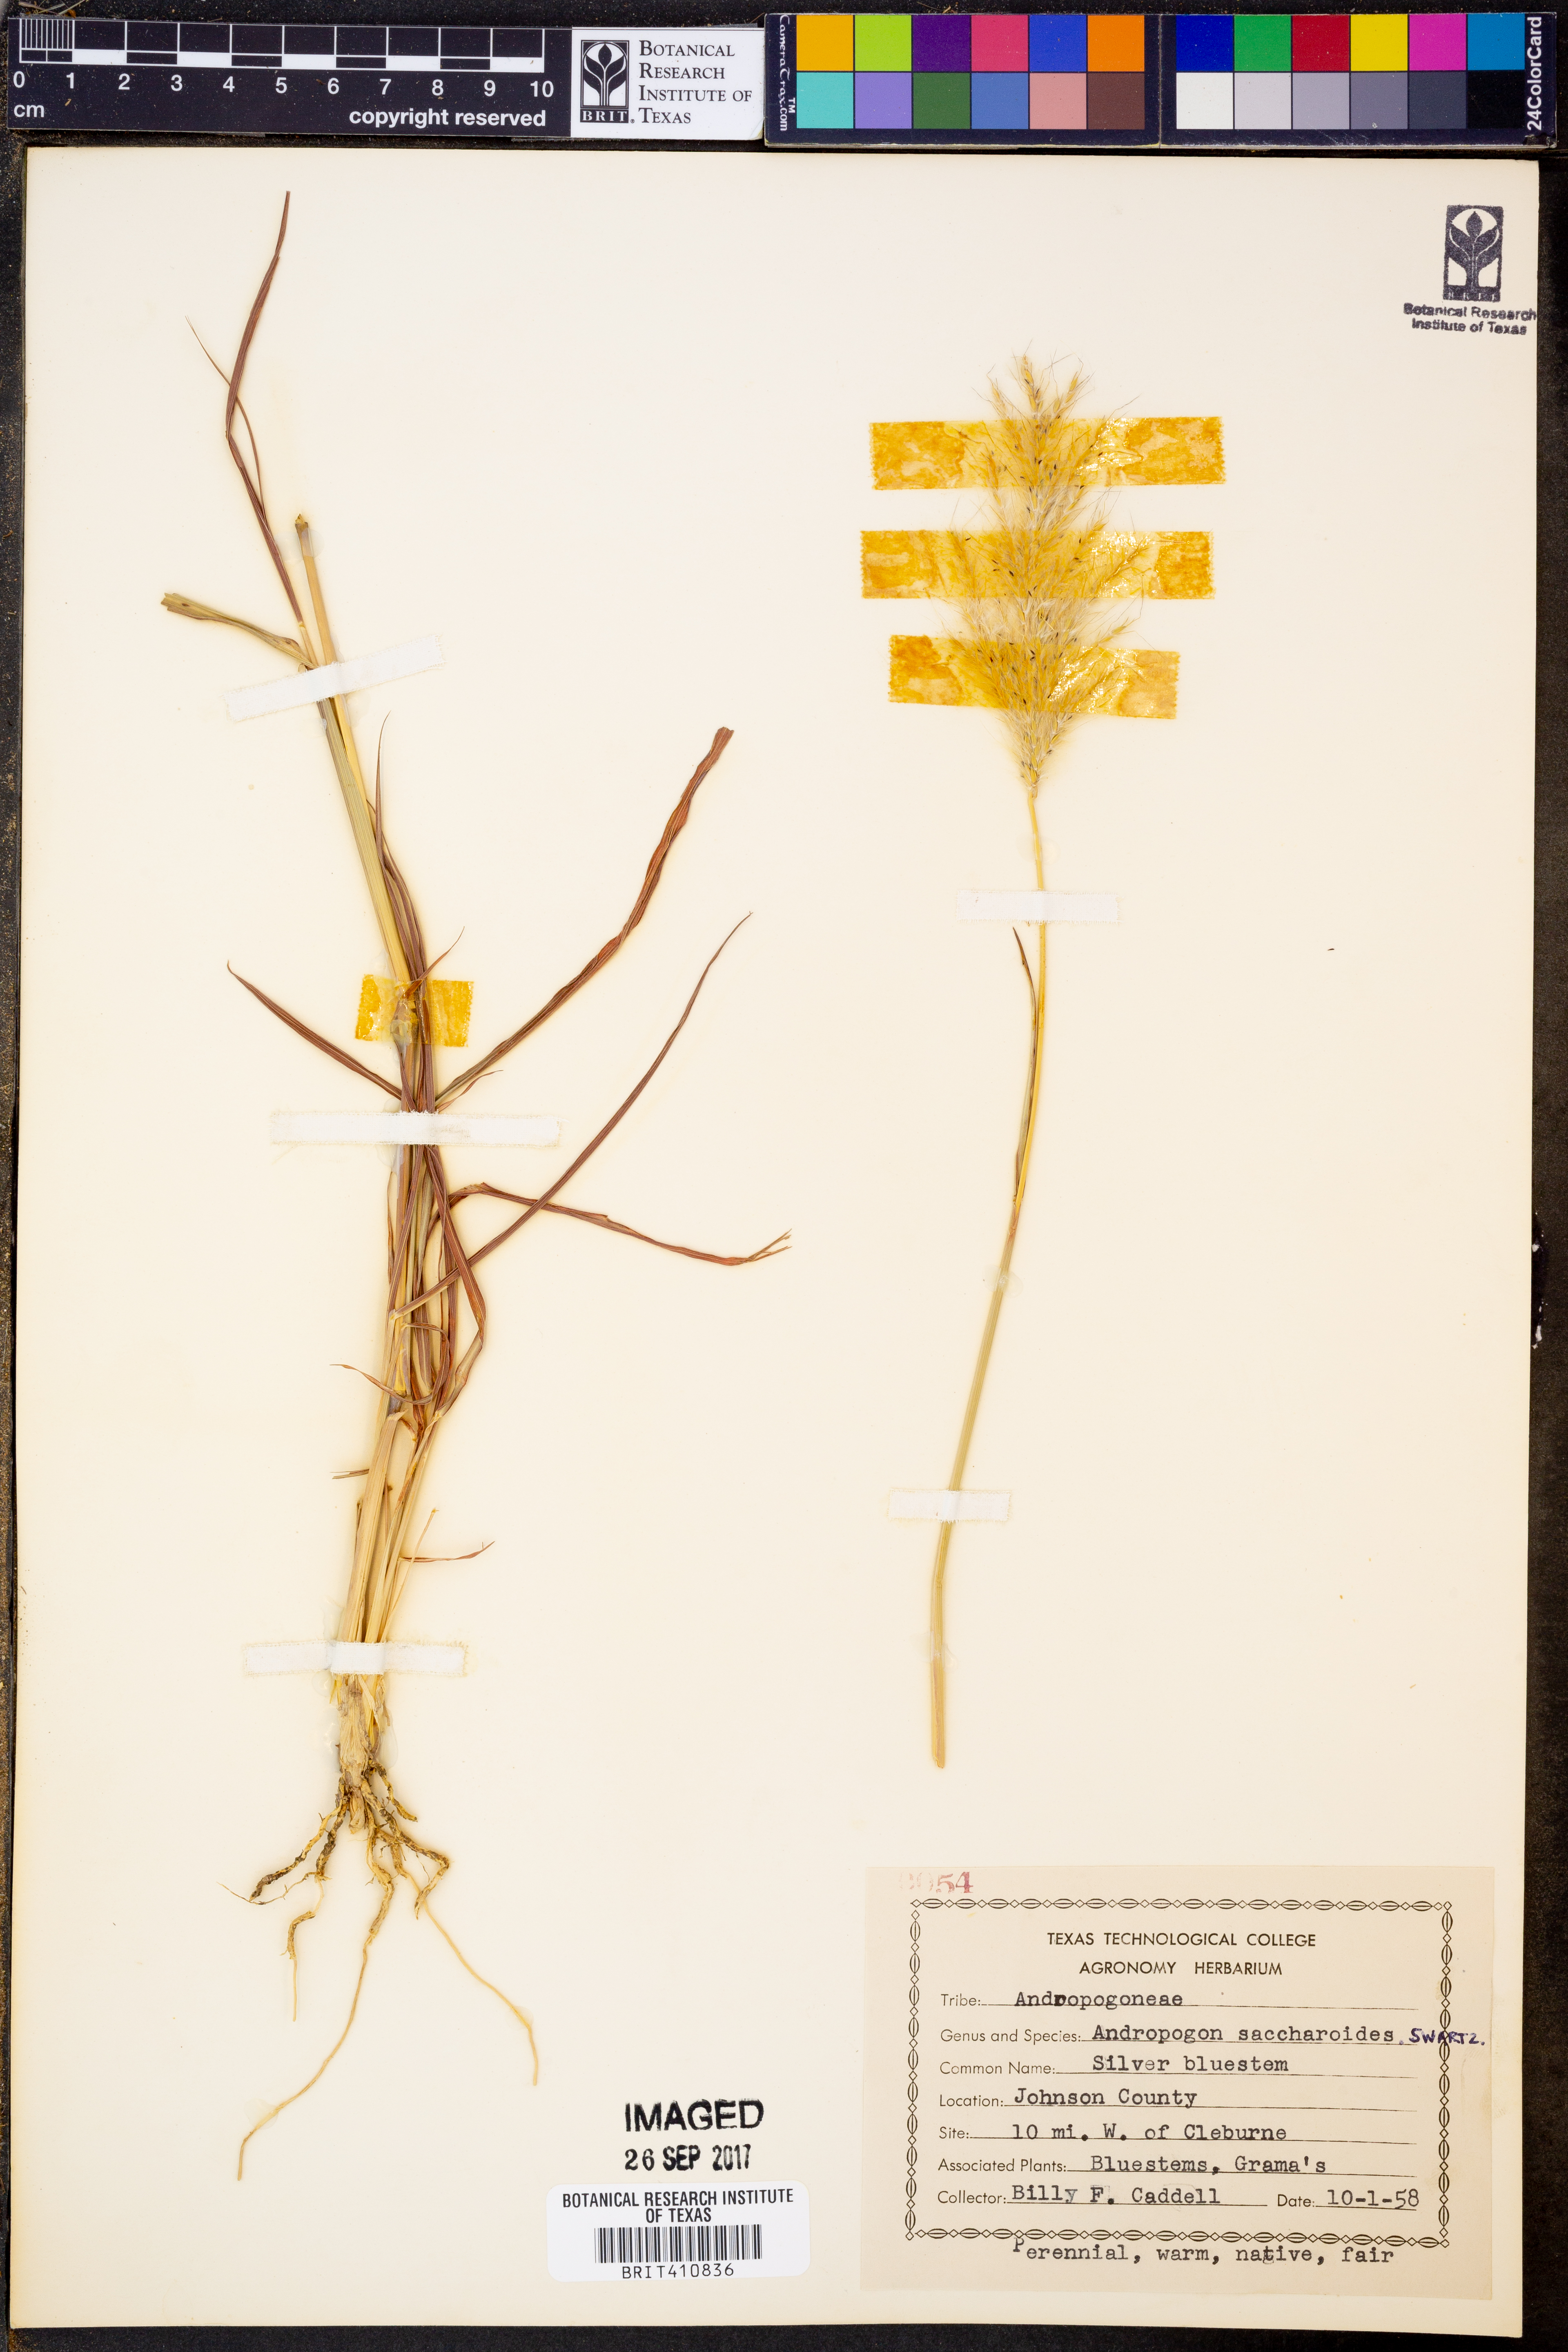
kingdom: Plantae
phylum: Tracheophyta
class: Liliopsida
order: Poales
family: Poaceae
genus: Bothriochloa
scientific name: Bothriochloa saccharoides
